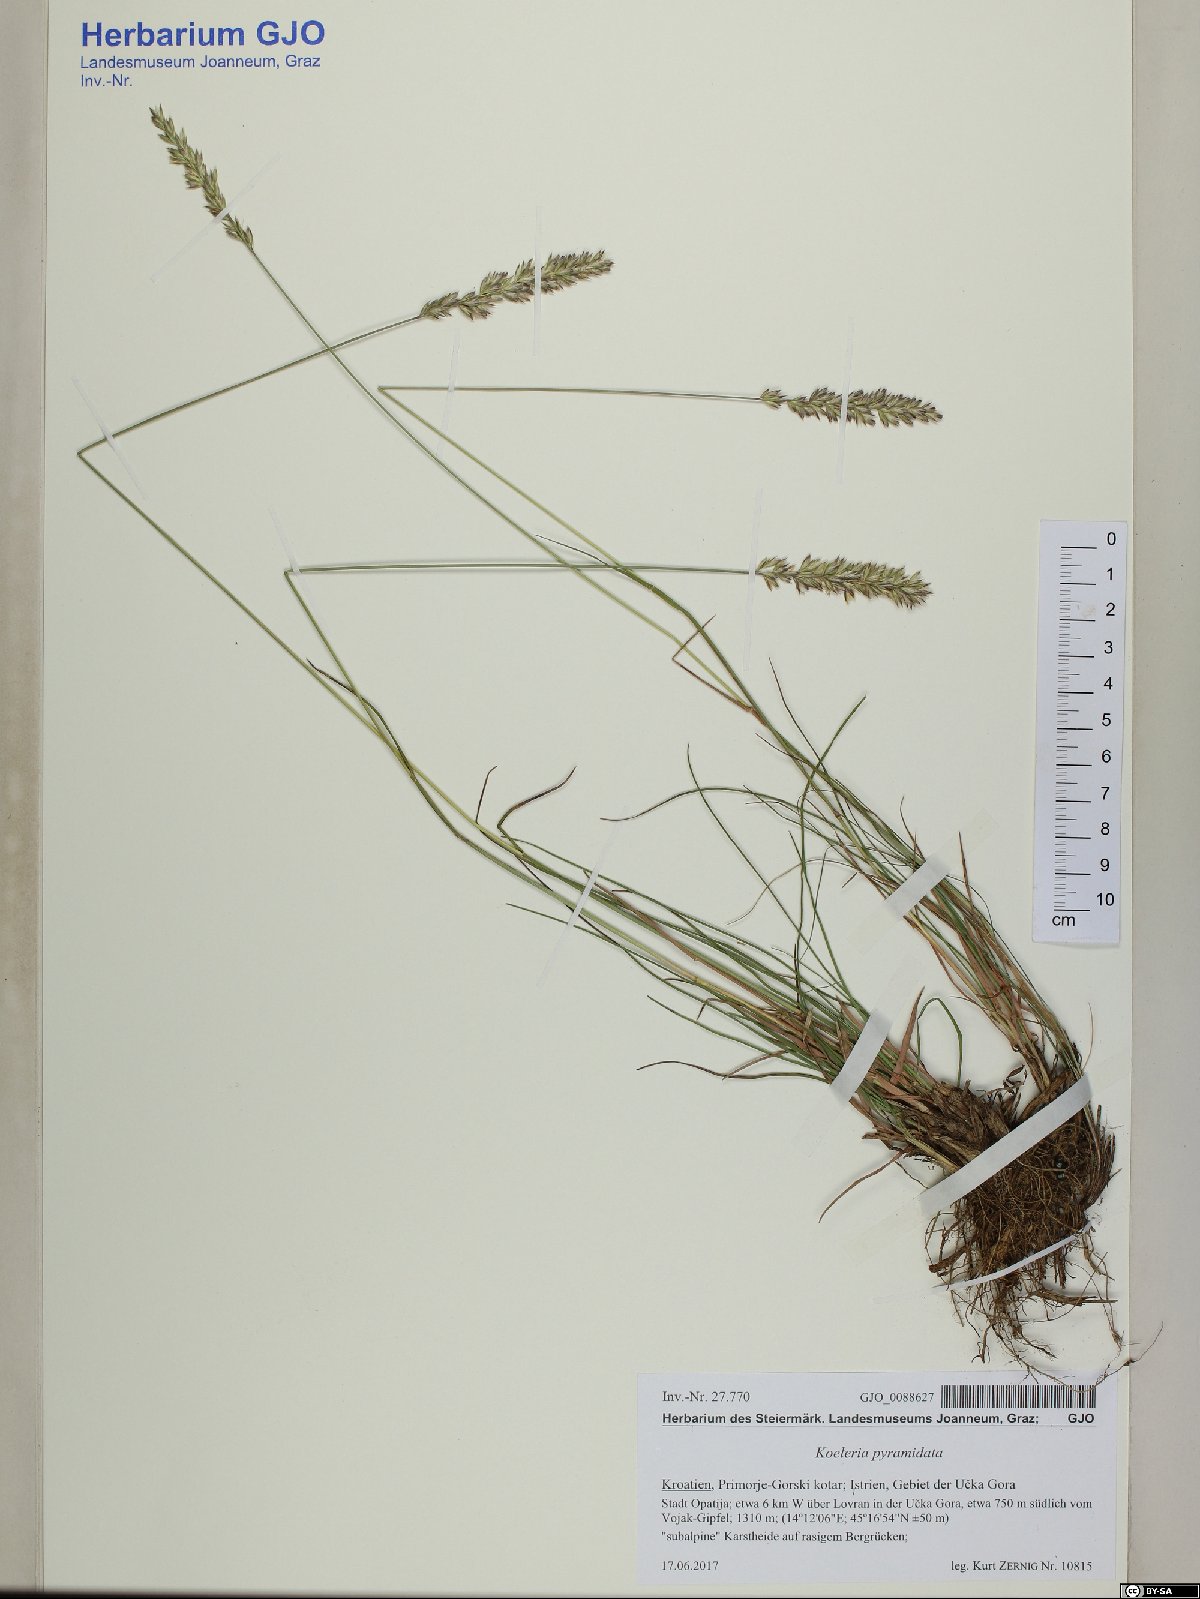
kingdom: Plantae
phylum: Tracheophyta
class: Liliopsida
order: Poales
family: Poaceae
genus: Koeleria
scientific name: Koeleria pyramidata
